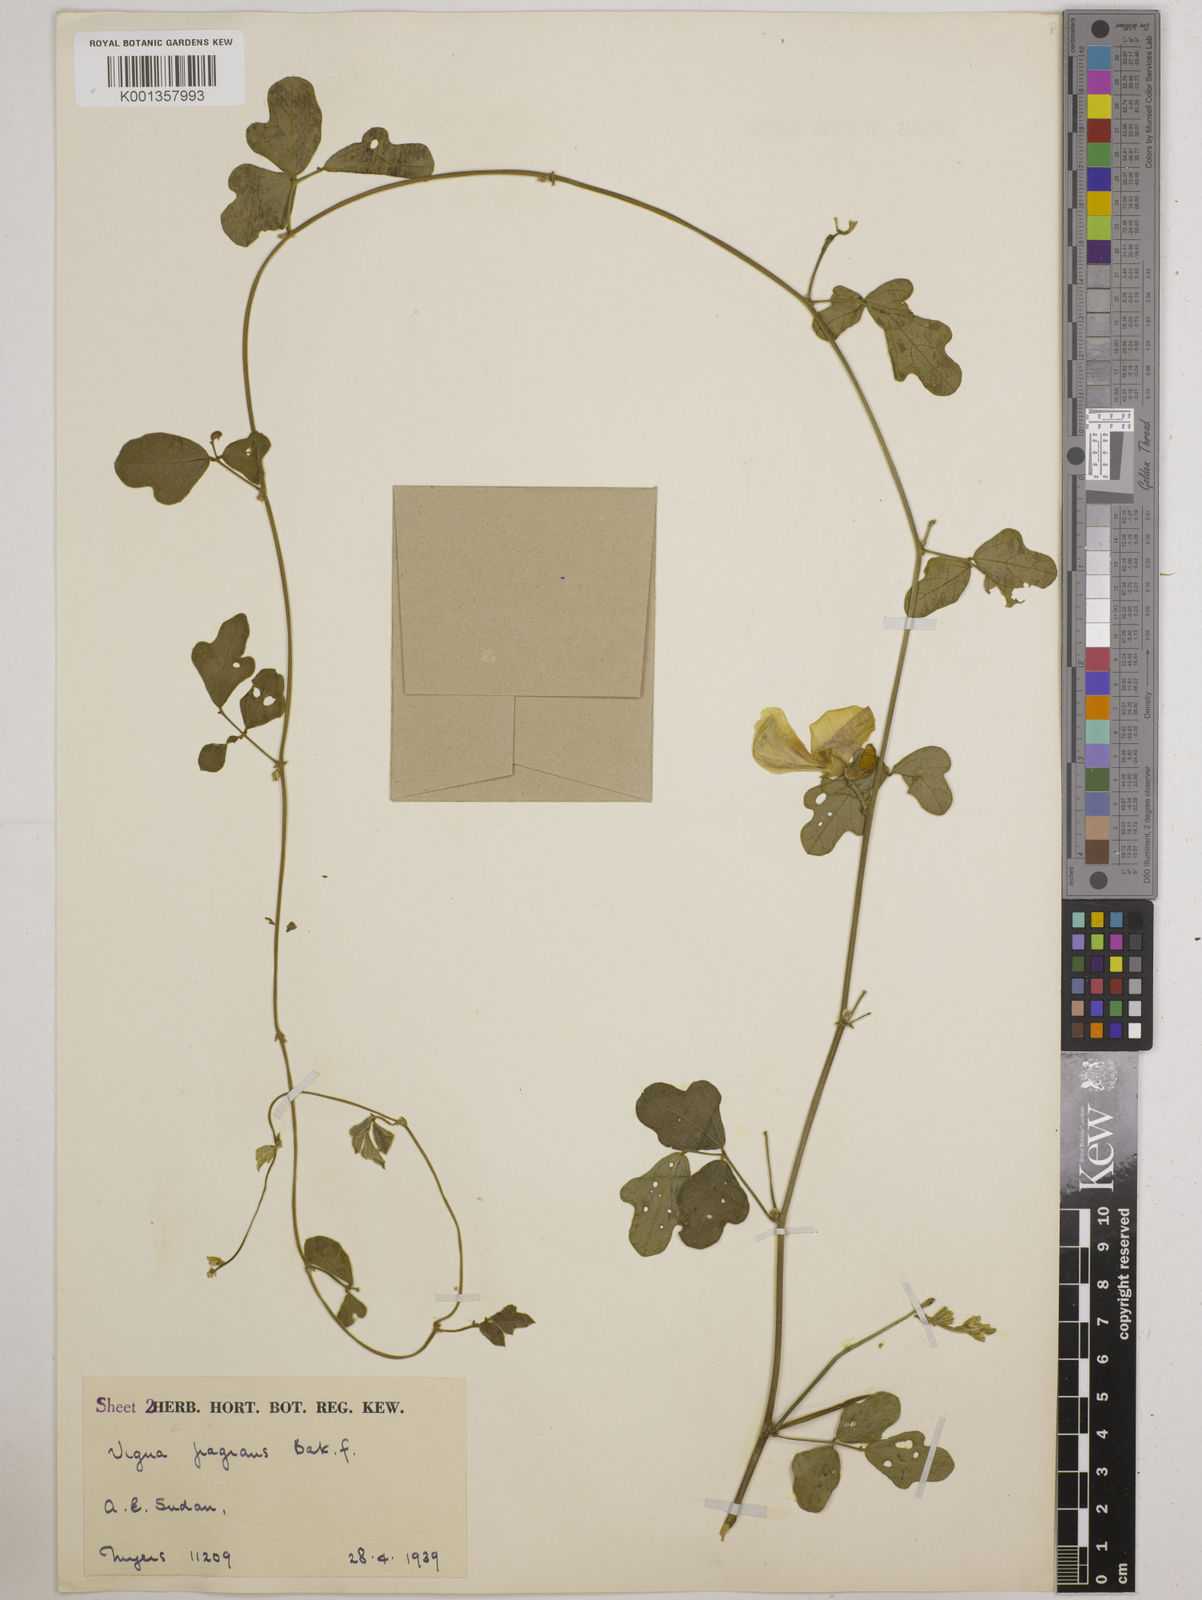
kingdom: Plantae
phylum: Tracheophyta
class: Magnoliopsida
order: Fabales
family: Fabaceae
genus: Vigna
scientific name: Vigna frutescens
